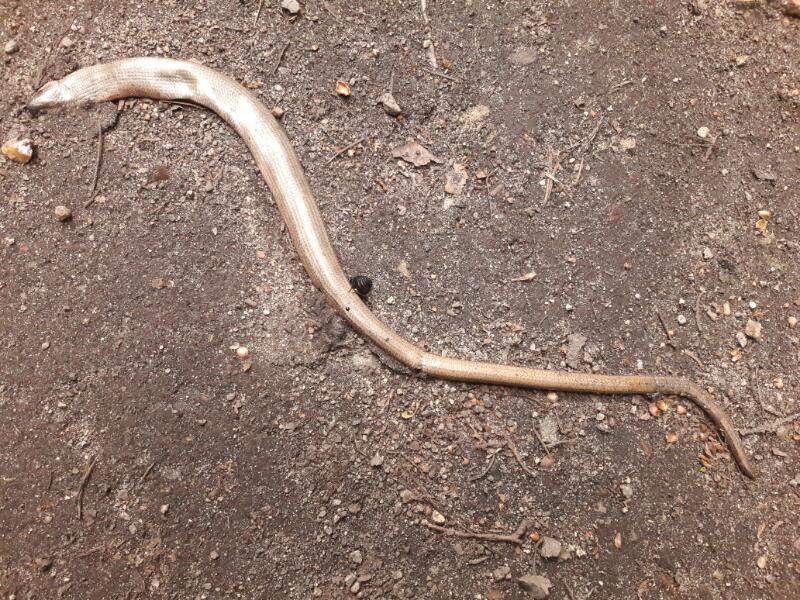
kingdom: Animalia
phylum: Chordata
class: Squamata
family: Anguidae
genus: Anguis
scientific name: Anguis fragilis
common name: Slow worm
